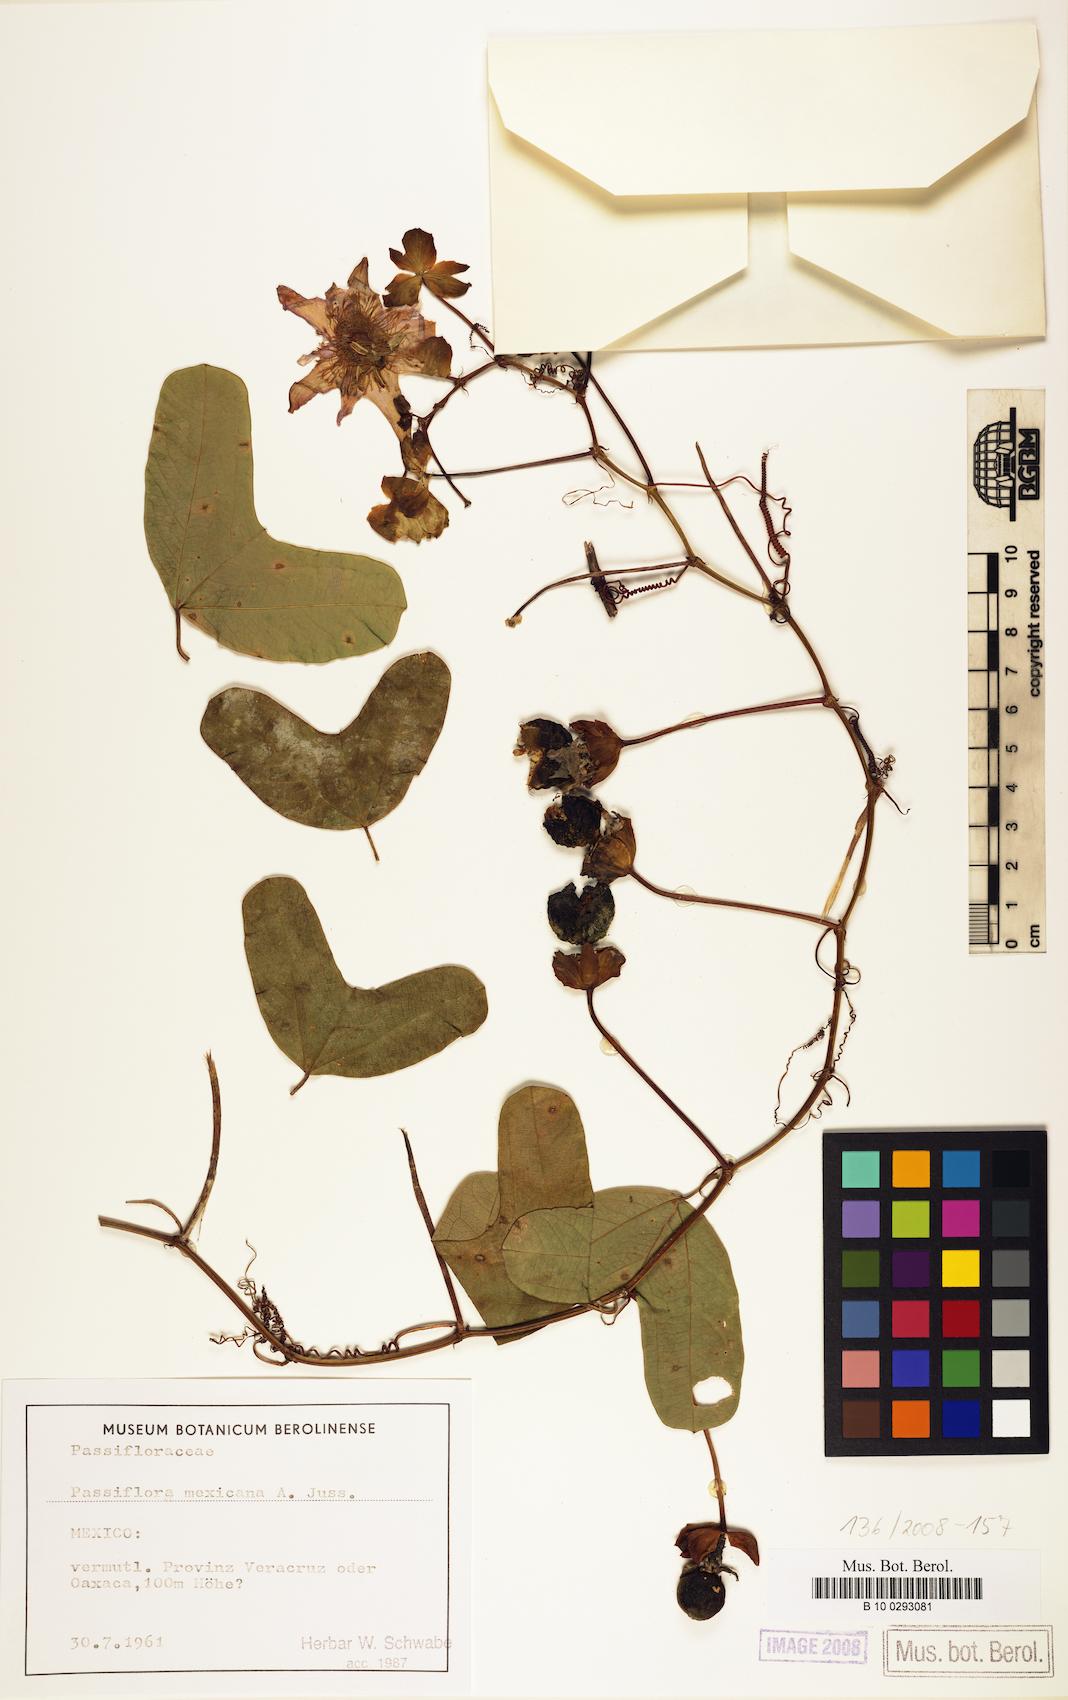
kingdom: Plantae
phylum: Tracheophyta
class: Magnoliopsida
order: Malpighiales
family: Passifloraceae
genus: Passiflora
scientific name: Passiflora mexicana
